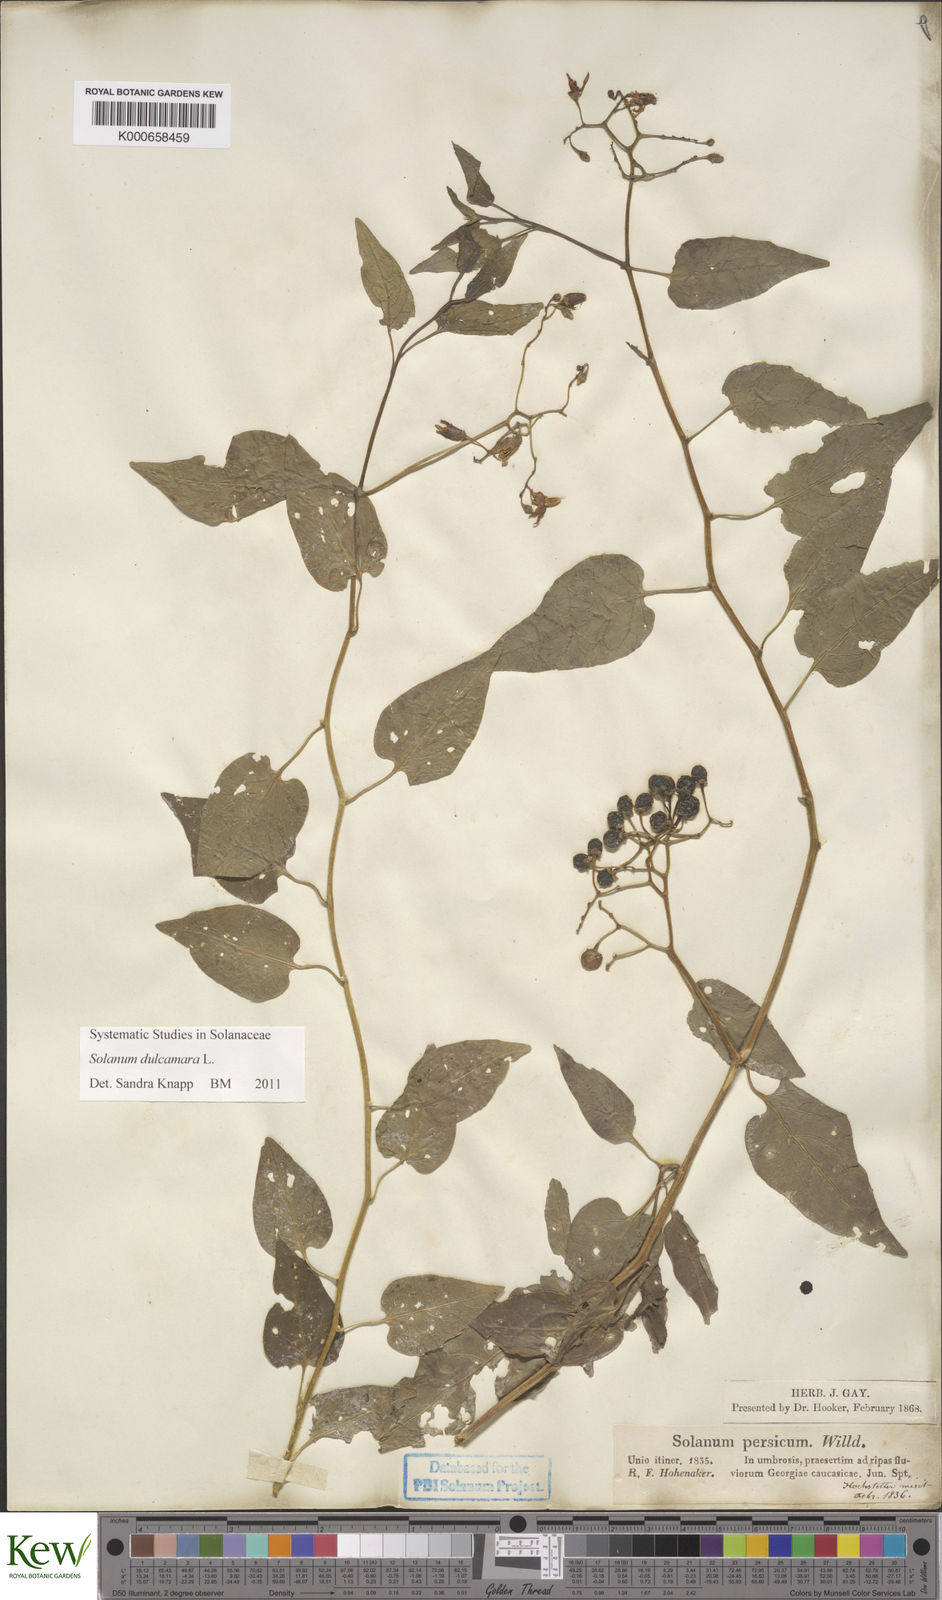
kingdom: Plantae
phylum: Tracheophyta
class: Magnoliopsida
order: Solanales
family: Solanaceae
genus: Solanum
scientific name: Solanum dulcamara
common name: Climbing nightshade
